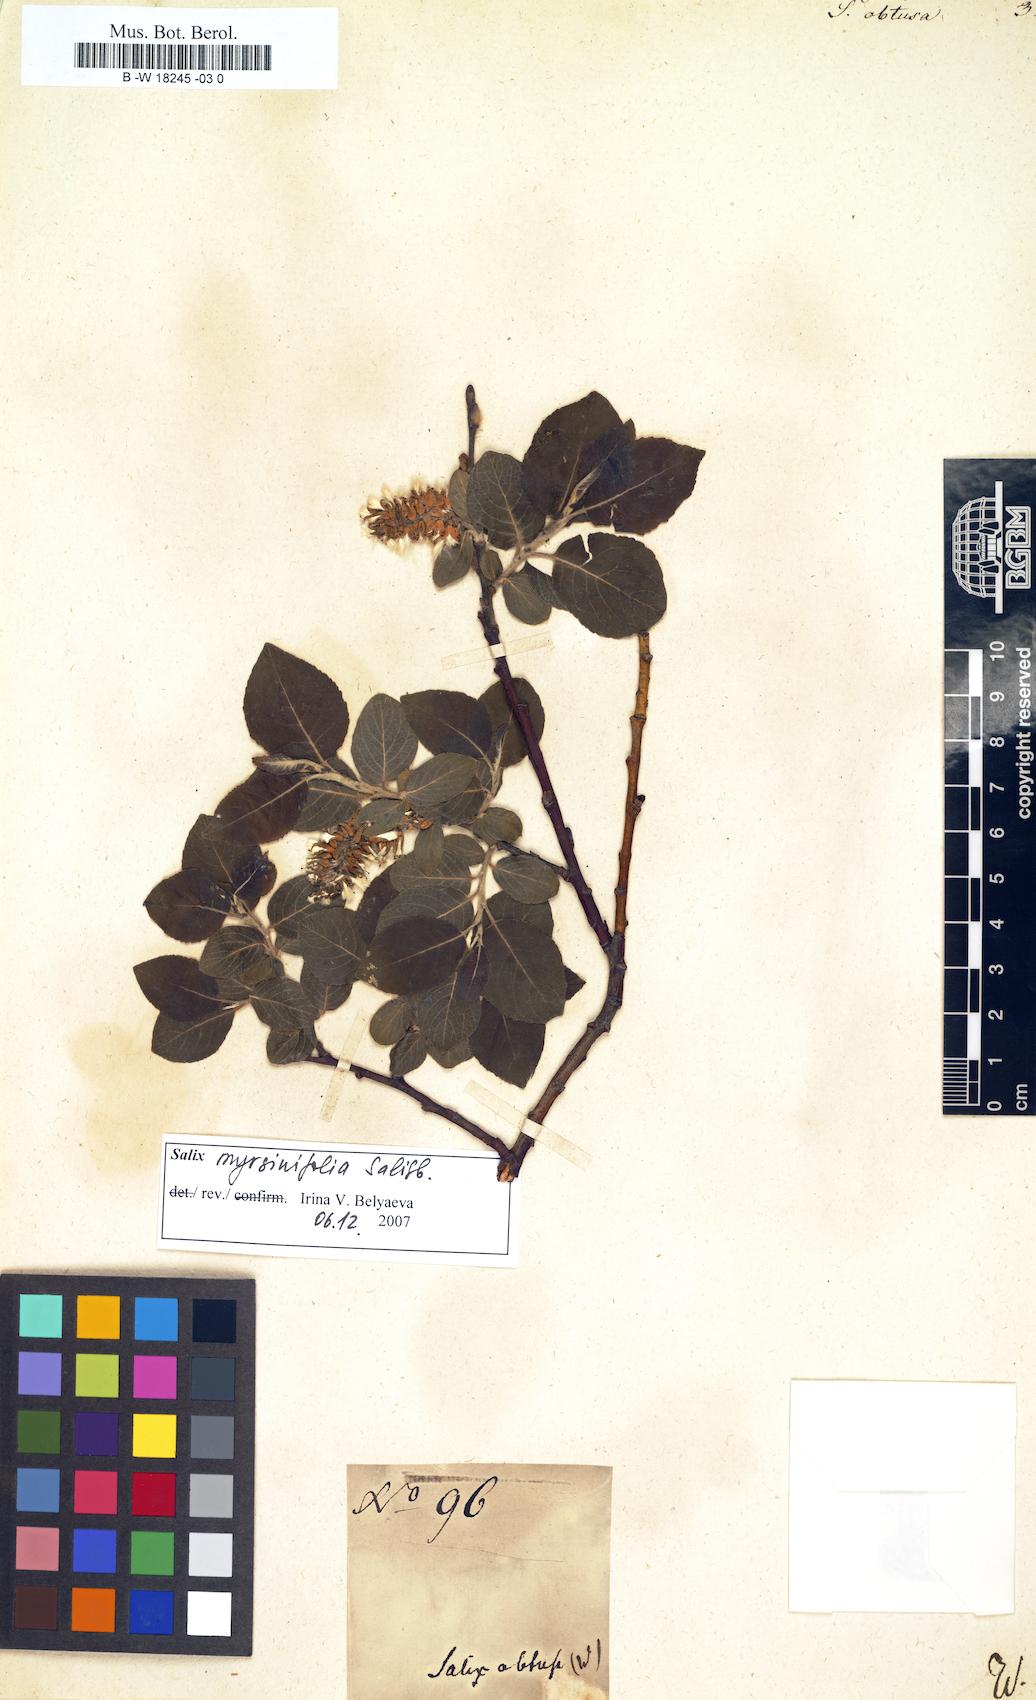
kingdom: Plantae
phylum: Tracheophyta
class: Magnoliopsida
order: Malpighiales
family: Salicaceae
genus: Salix
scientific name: Salix obtusa
